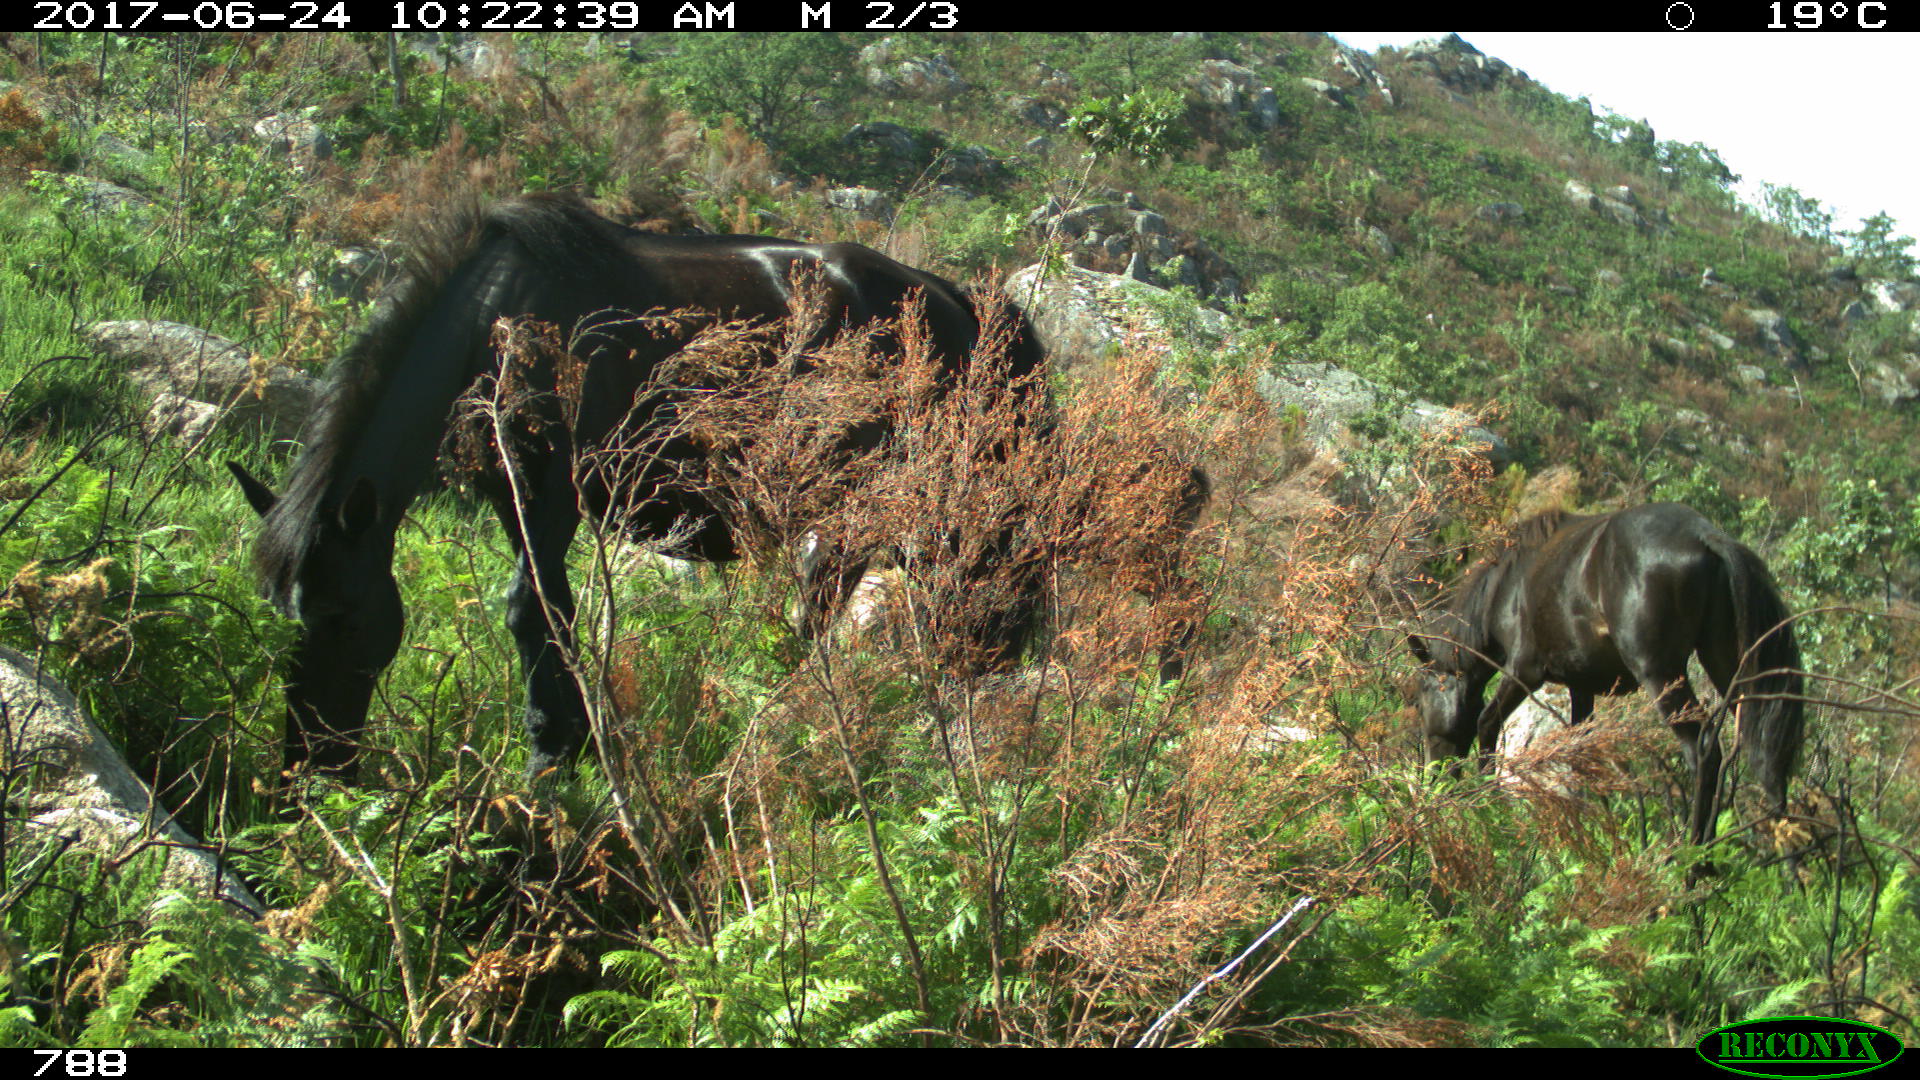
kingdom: Animalia
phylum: Chordata
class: Mammalia
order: Perissodactyla
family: Equidae
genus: Equus
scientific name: Equus caballus
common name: Horse
